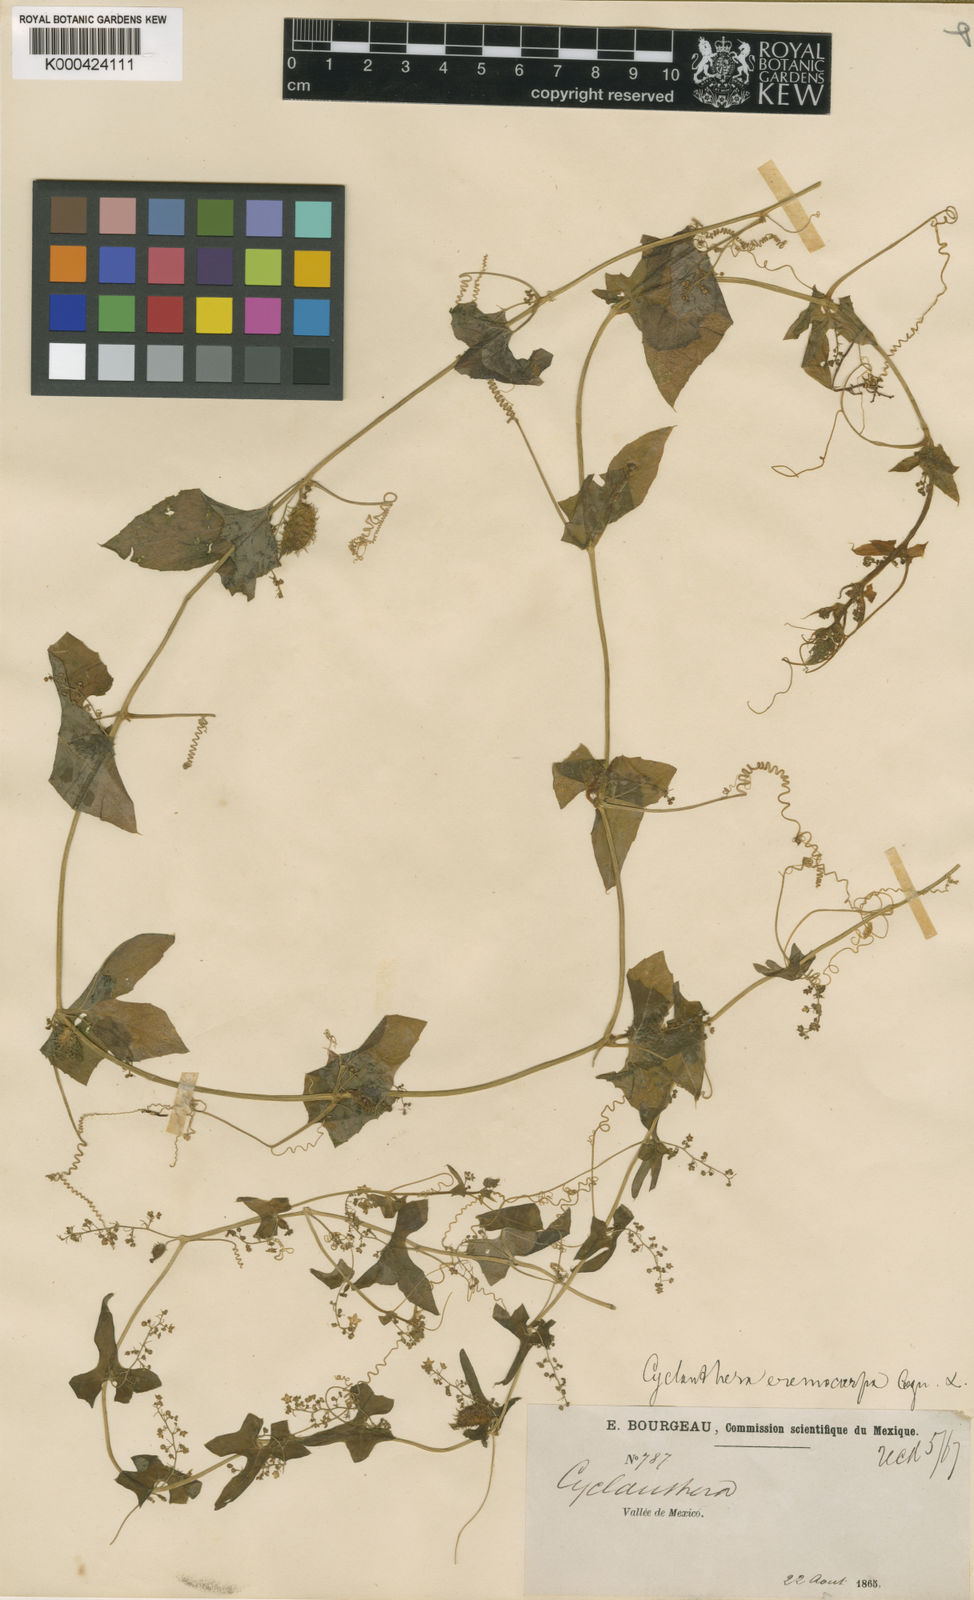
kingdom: Plantae
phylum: Tracheophyta
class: Magnoliopsida
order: Cucurbitales
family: Cucurbitaceae
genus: Cyclanthera
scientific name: Cyclanthera ribiflora
